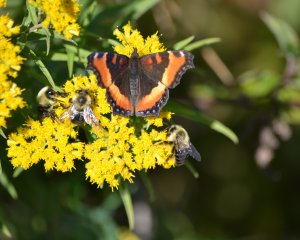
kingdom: Animalia
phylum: Arthropoda
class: Insecta
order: Lepidoptera
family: Nymphalidae
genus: Aglais
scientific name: Aglais milberti
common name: Milbert's Tortoiseshell
